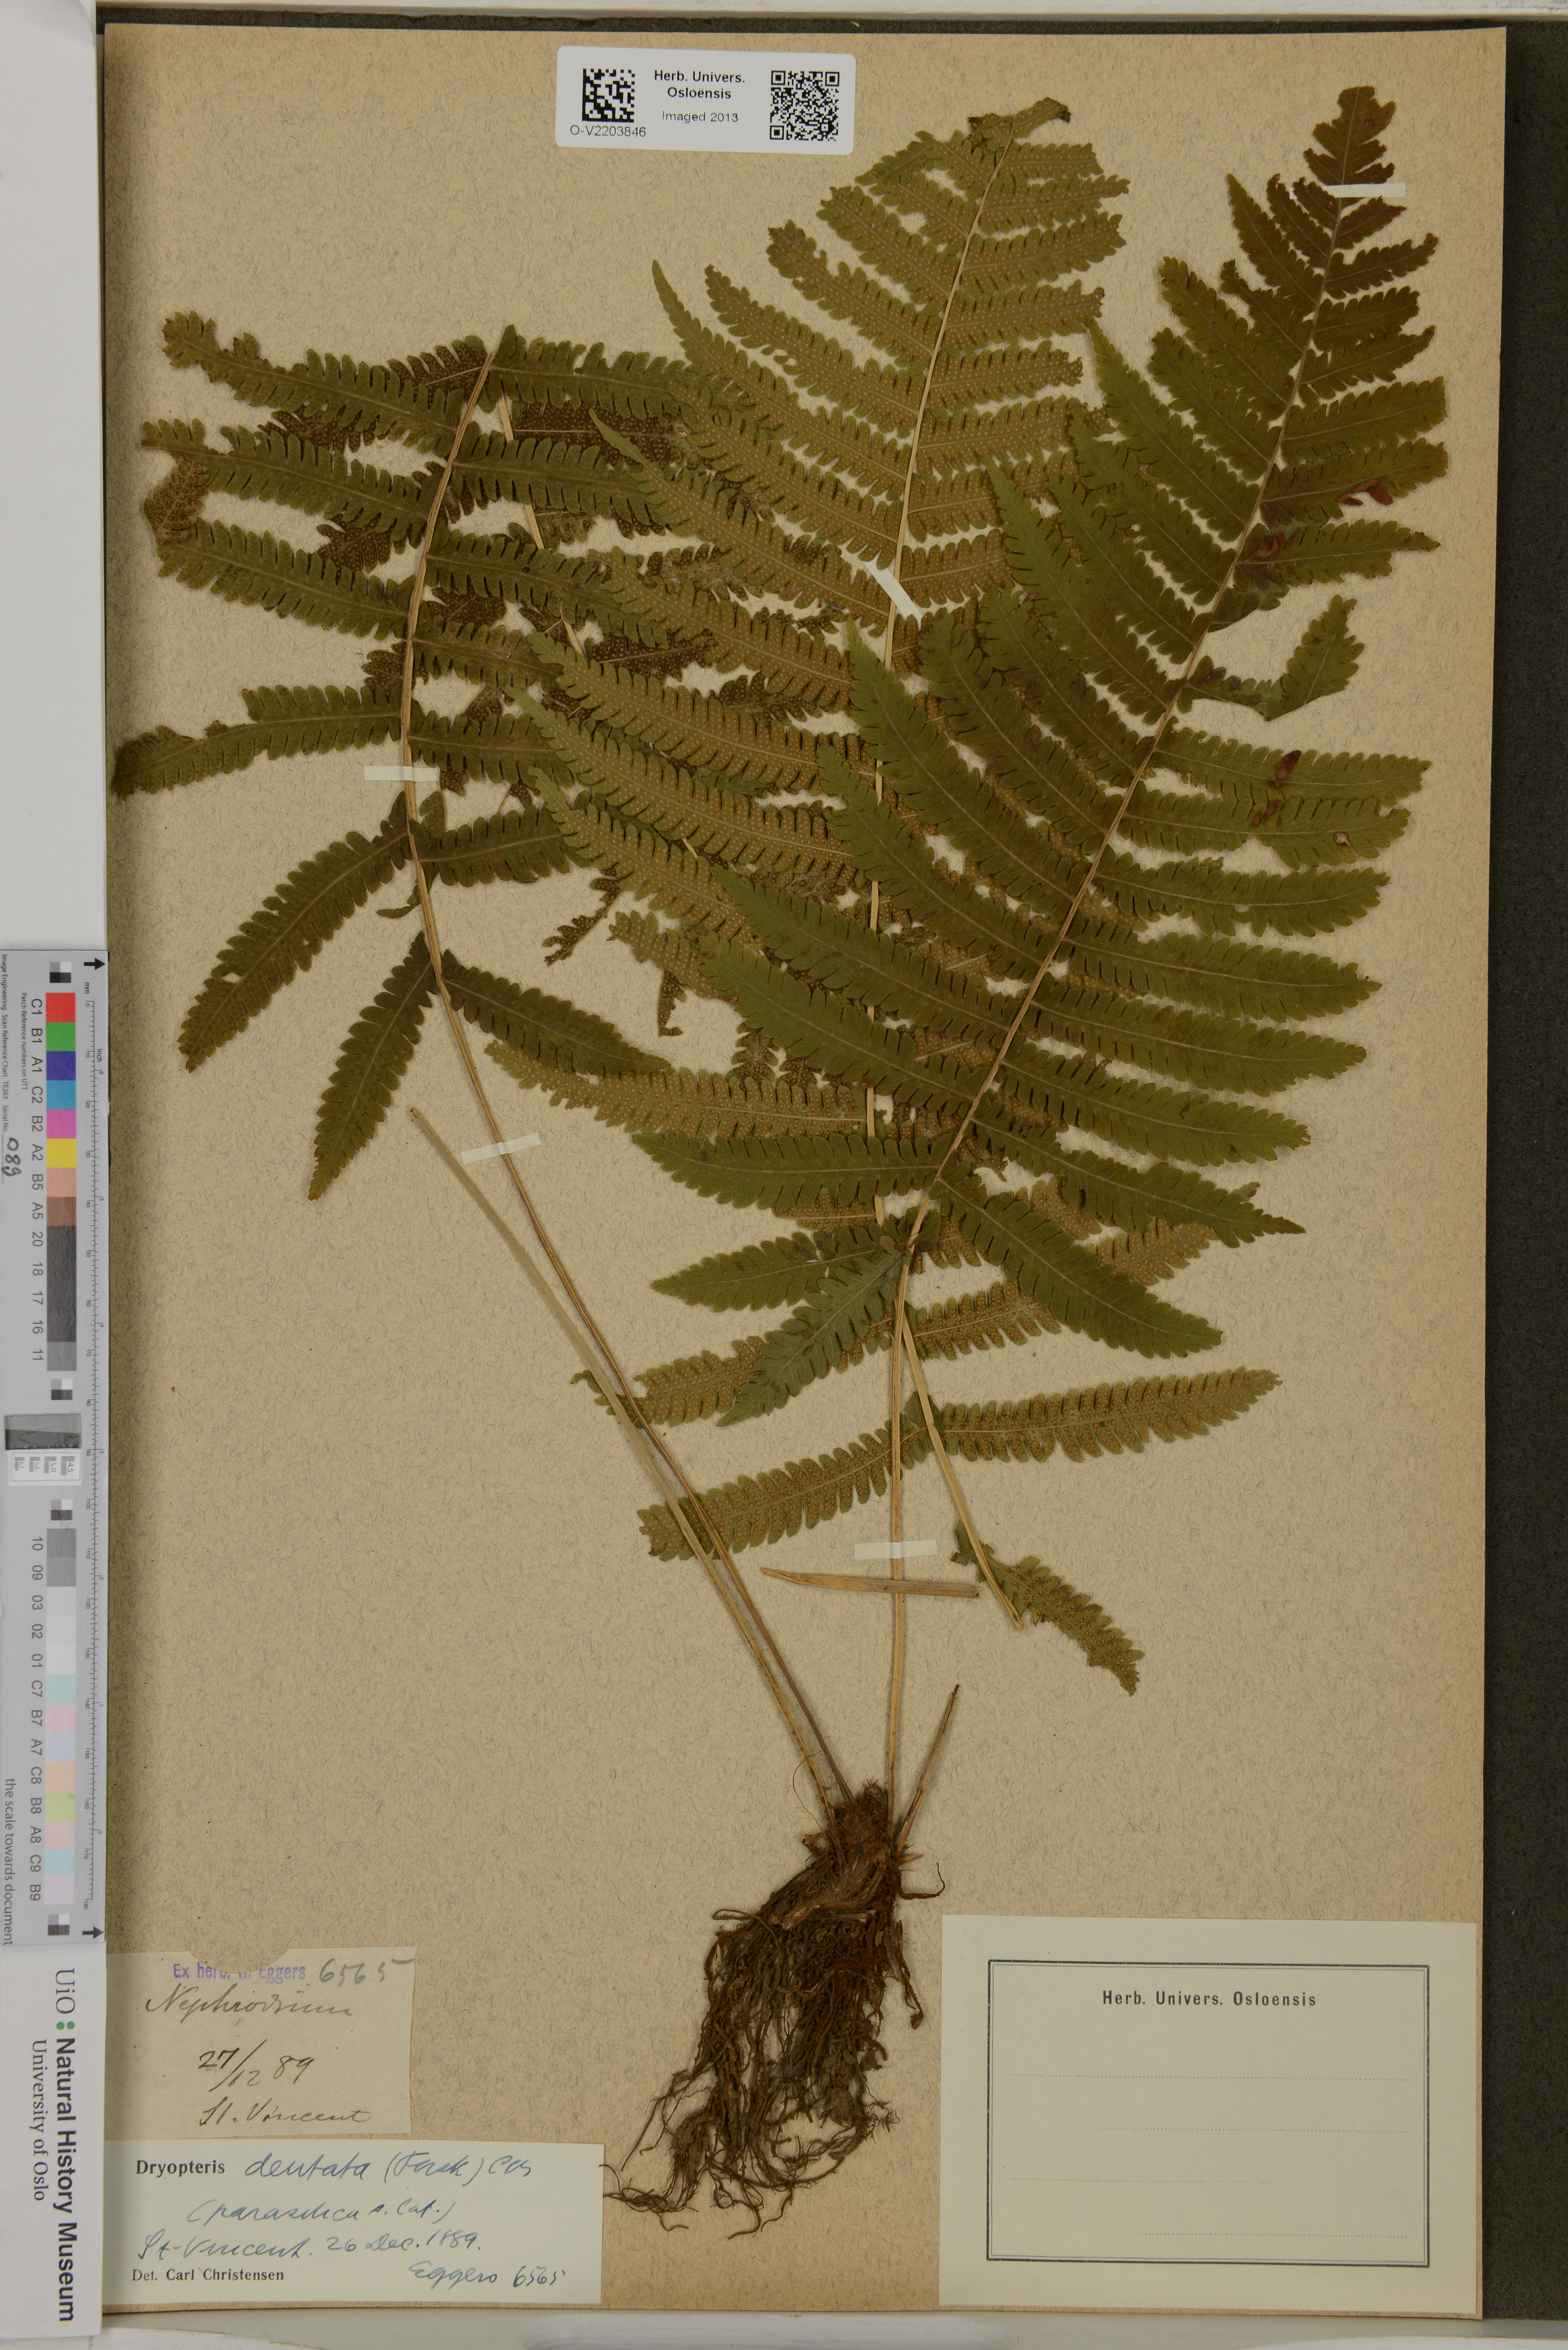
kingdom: Plantae
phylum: Tracheophyta
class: Polypodiopsida
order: Polypodiales
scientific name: Polypodiales
